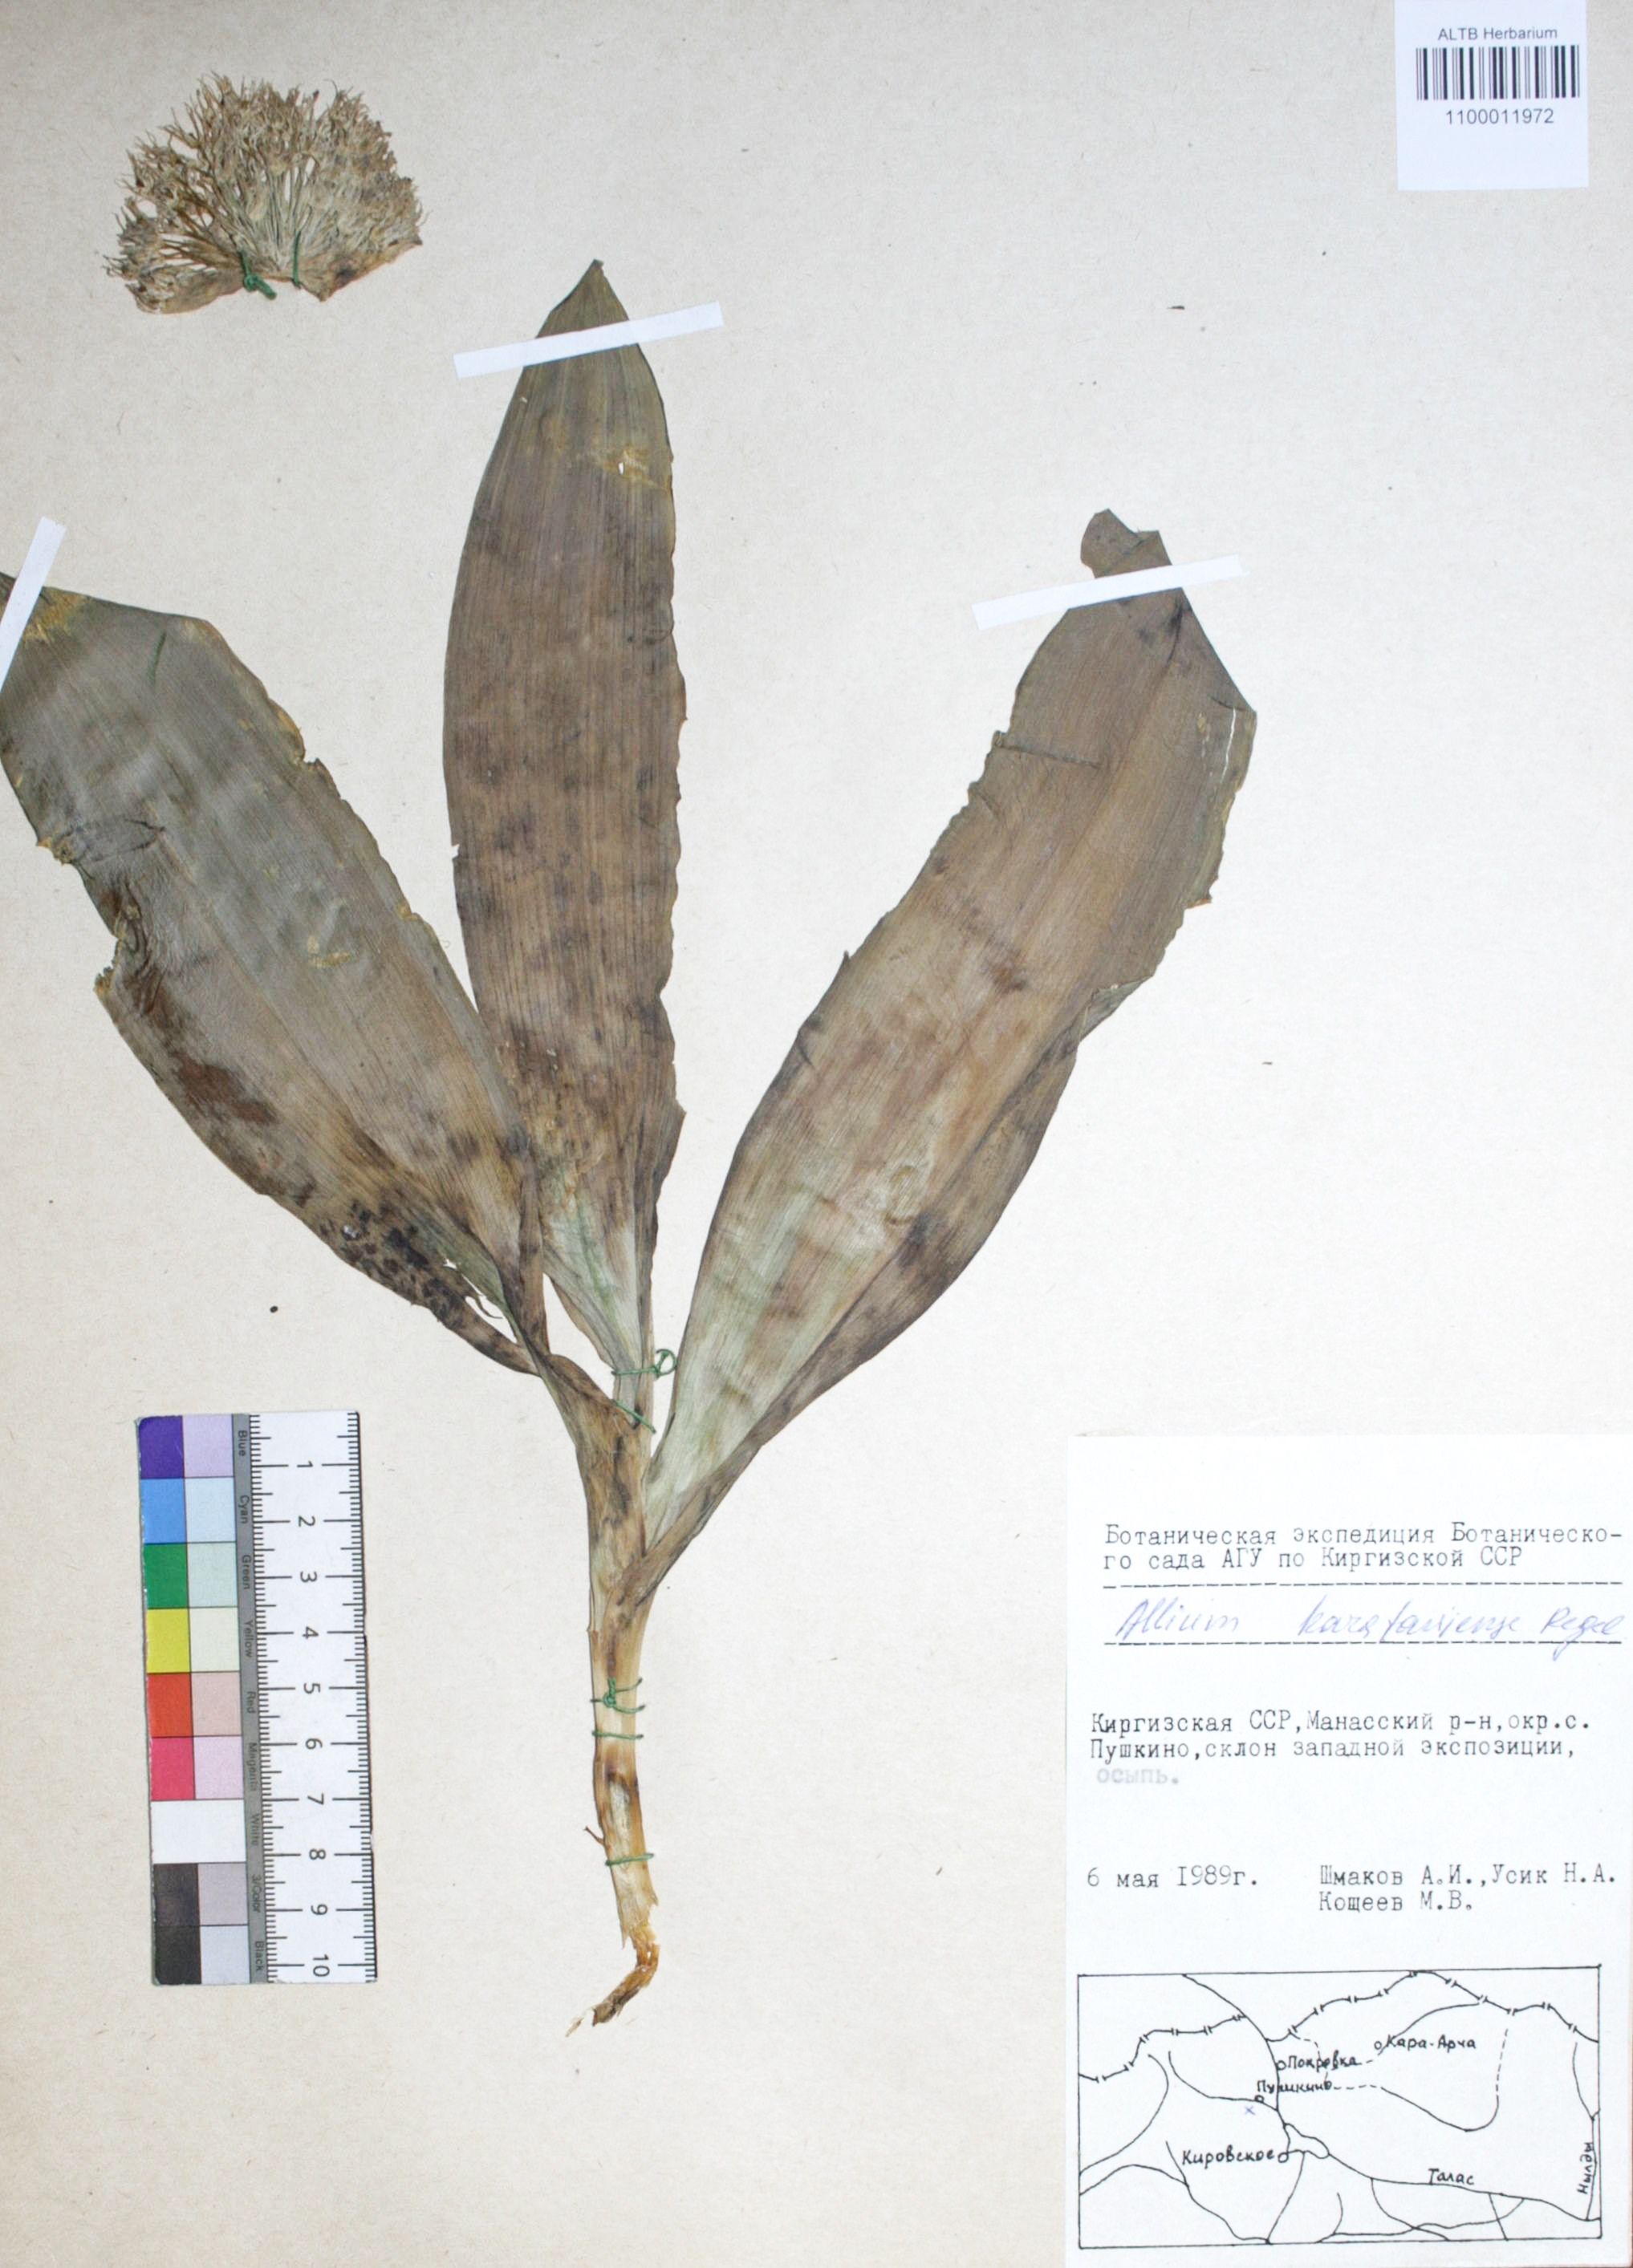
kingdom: Plantae
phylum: Tracheophyta
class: Liliopsida
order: Asparagales
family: Amaryllidaceae
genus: Allium
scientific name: Allium karataviense
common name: Turkestan onion
